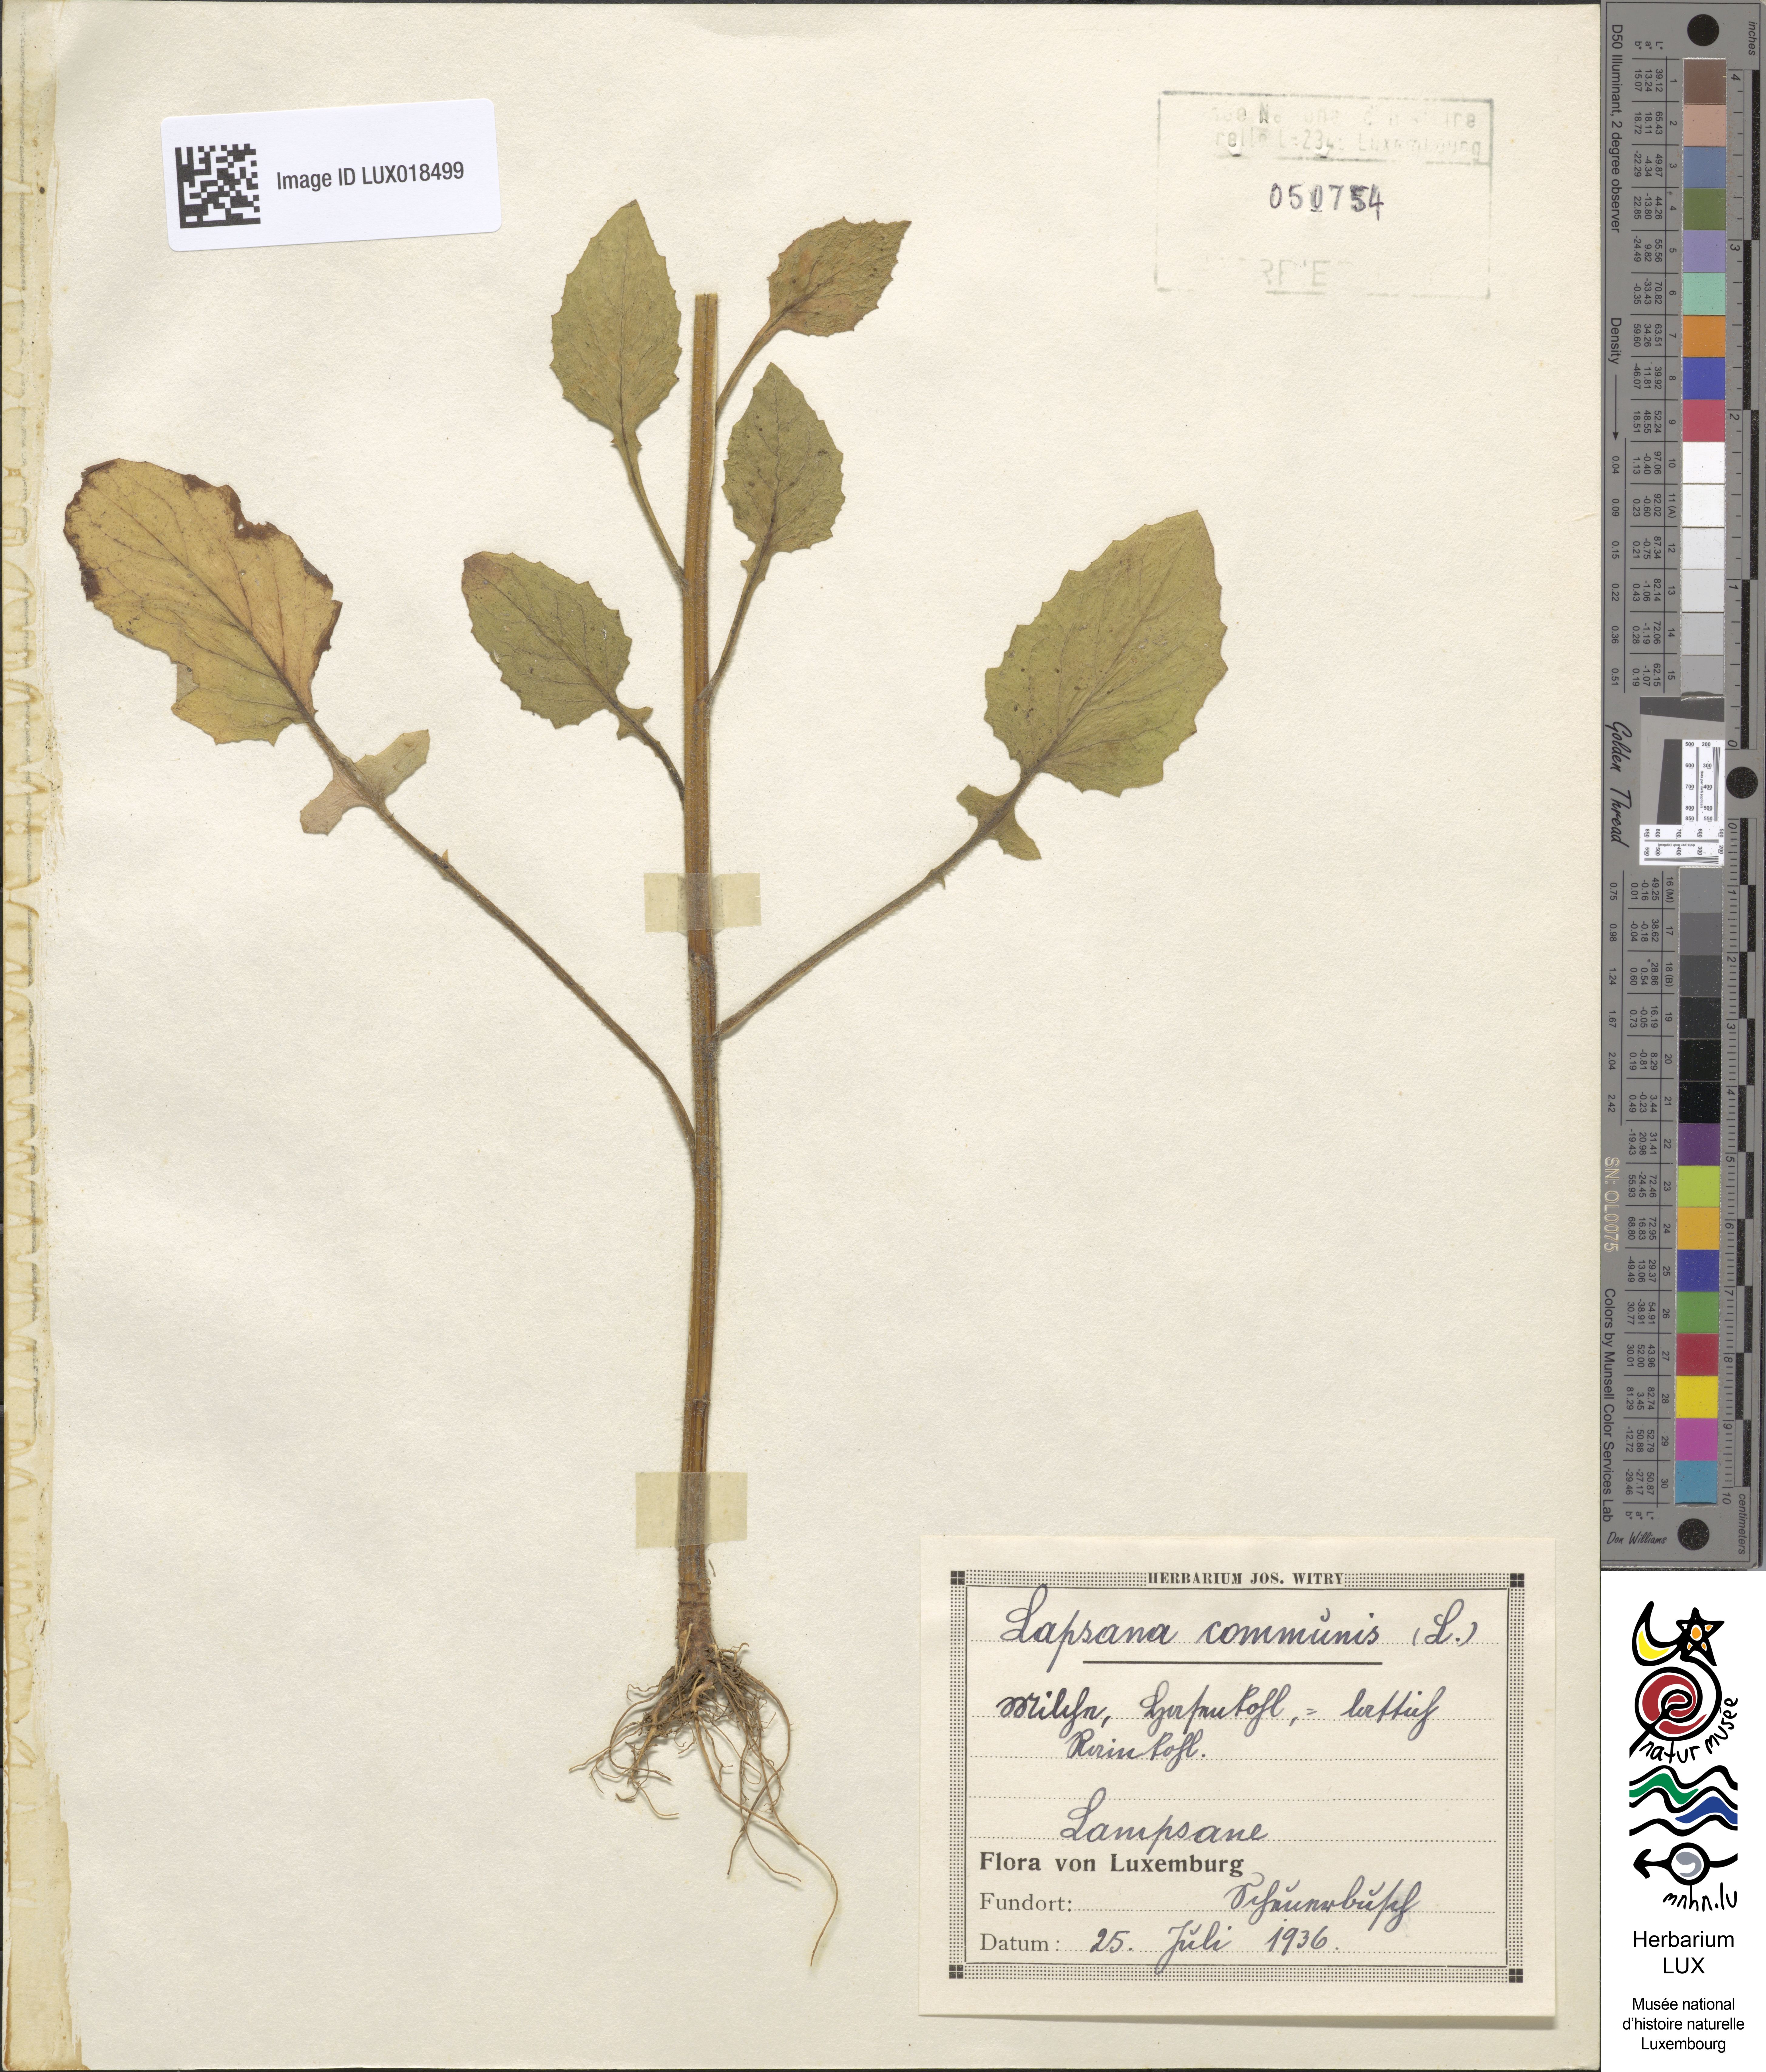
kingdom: Plantae
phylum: Tracheophyta
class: Magnoliopsida
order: Asterales
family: Asteraceae
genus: Lapsana
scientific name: Lapsana communis
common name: Nipplewort
